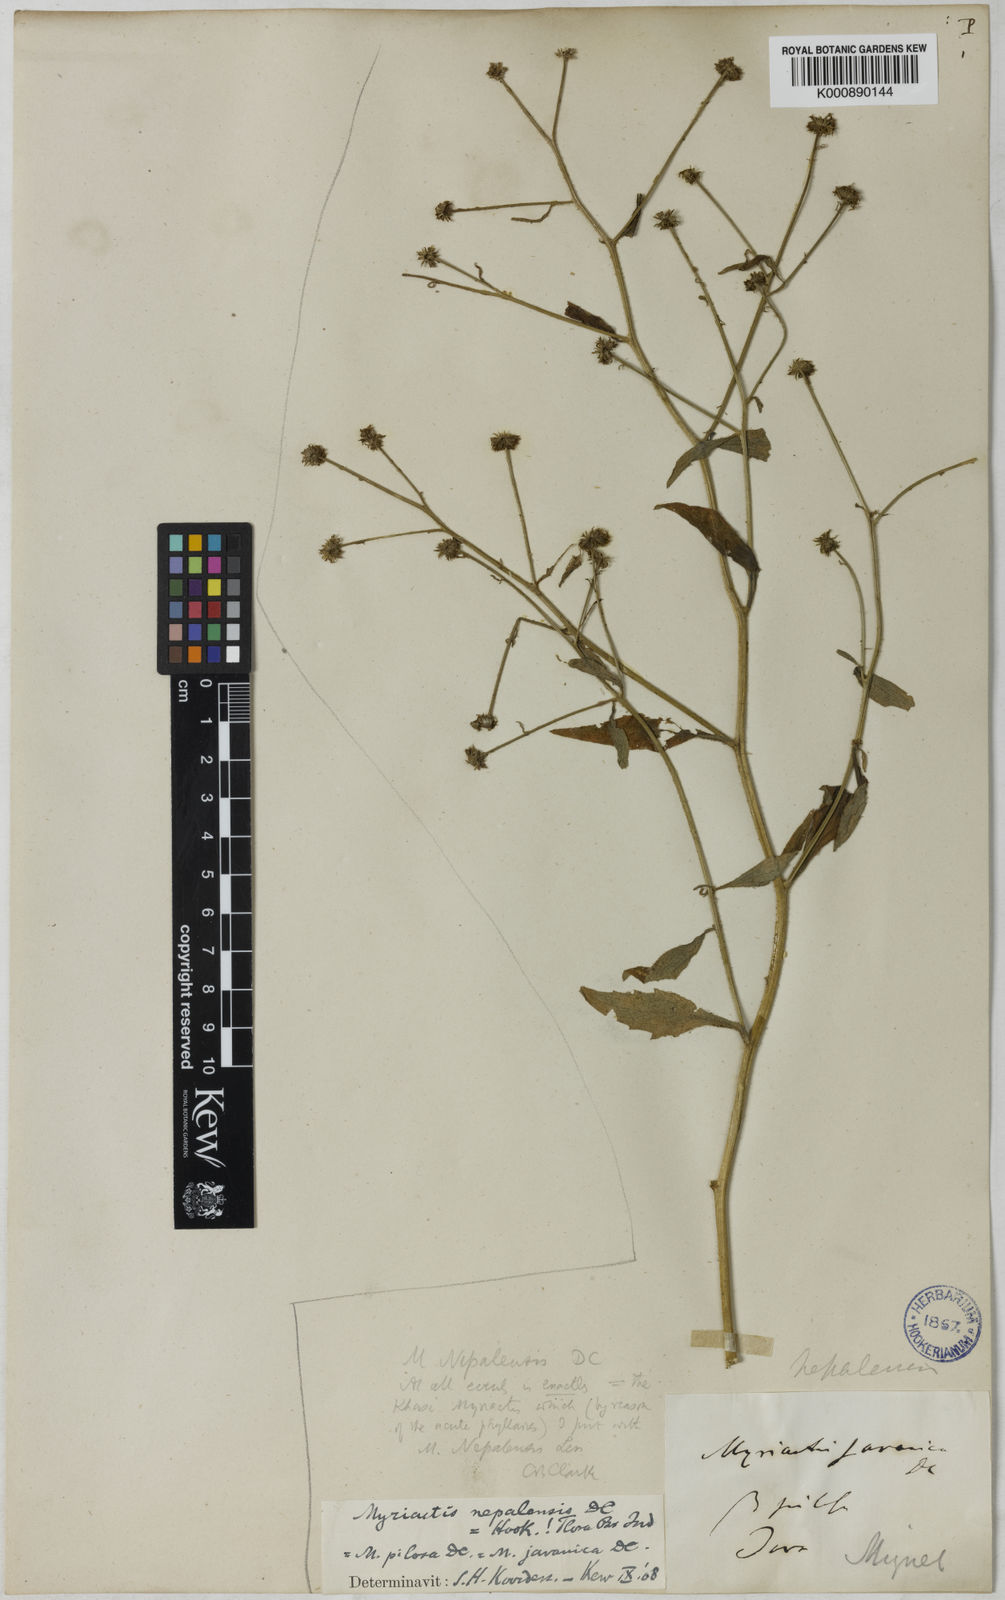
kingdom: Plantae
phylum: Tracheophyta
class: Magnoliopsida
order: Asterales
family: Asteraceae
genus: Myriactis
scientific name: Myriactis
